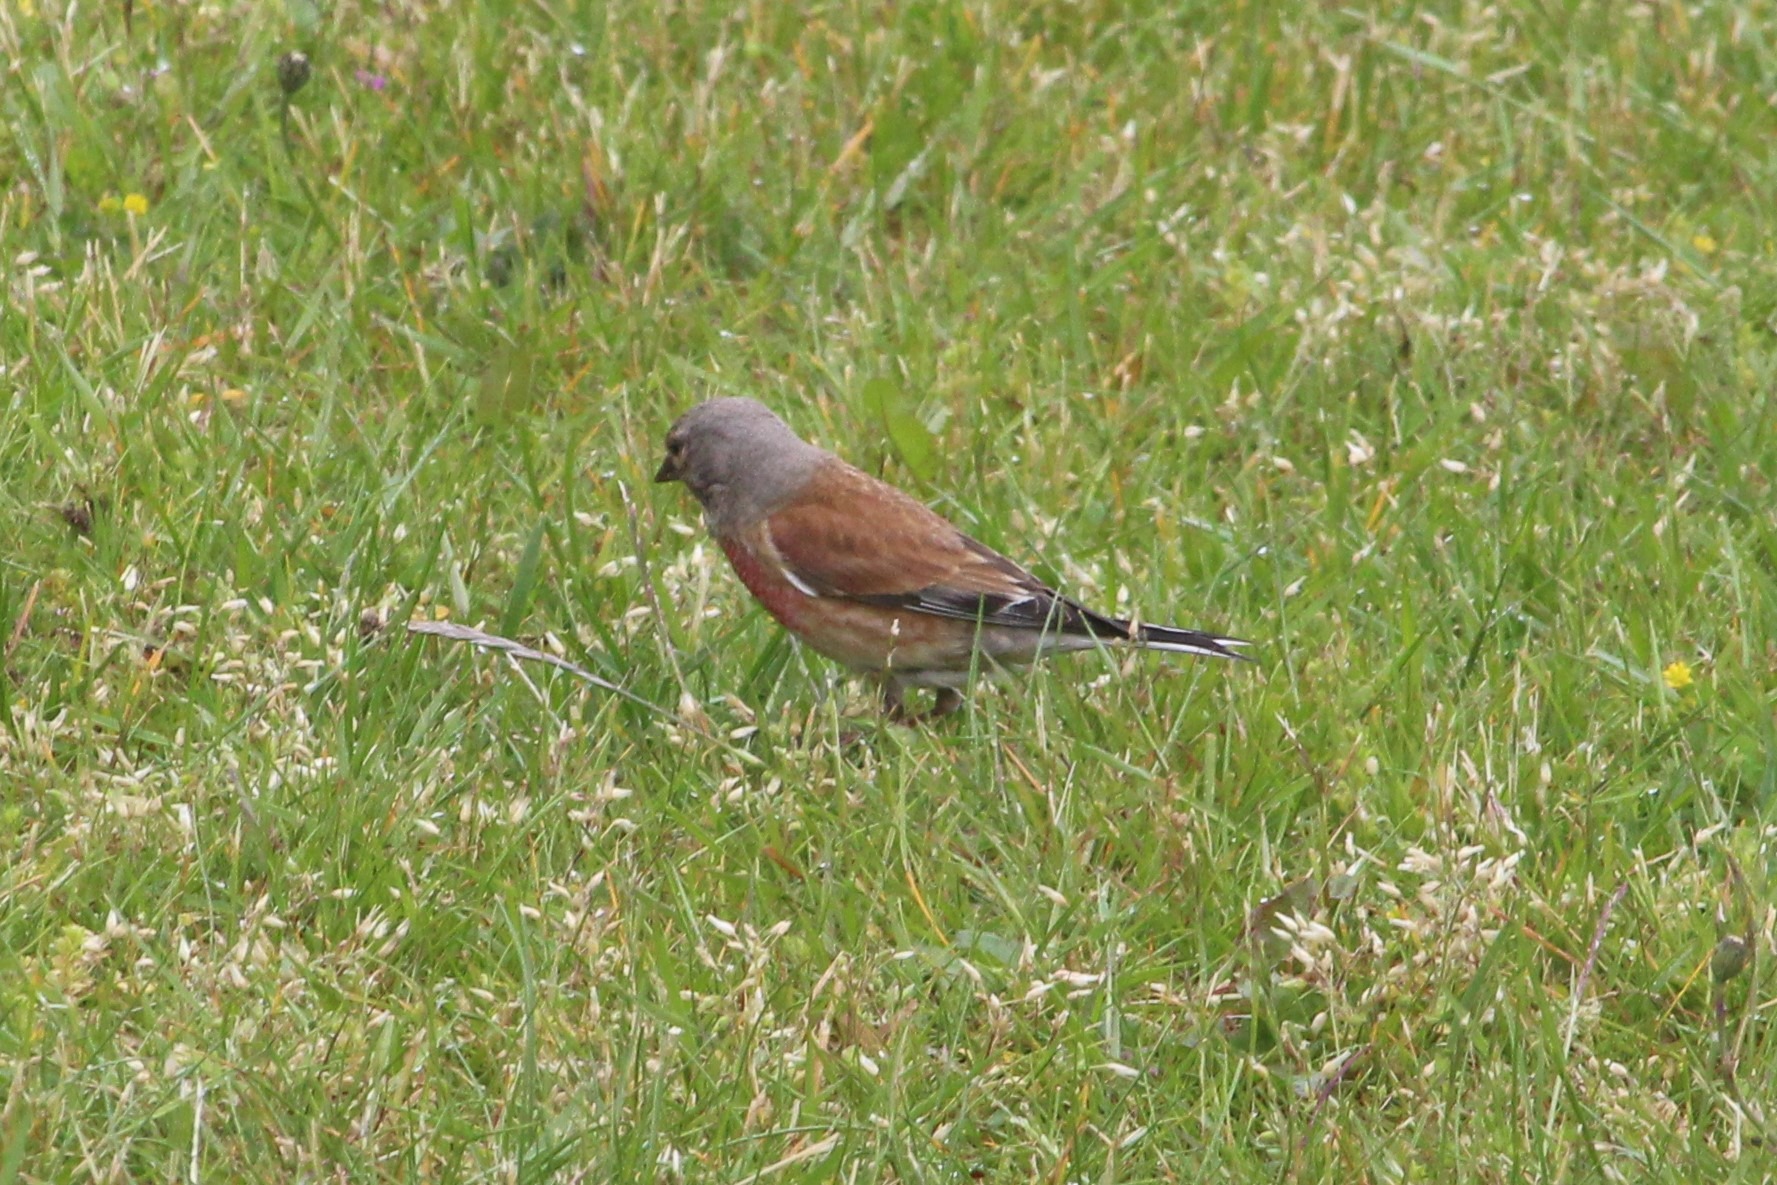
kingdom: Animalia
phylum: Chordata
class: Aves
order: Passeriformes
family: Fringillidae
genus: Linaria
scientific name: Linaria cannabina
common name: Tornirisk
